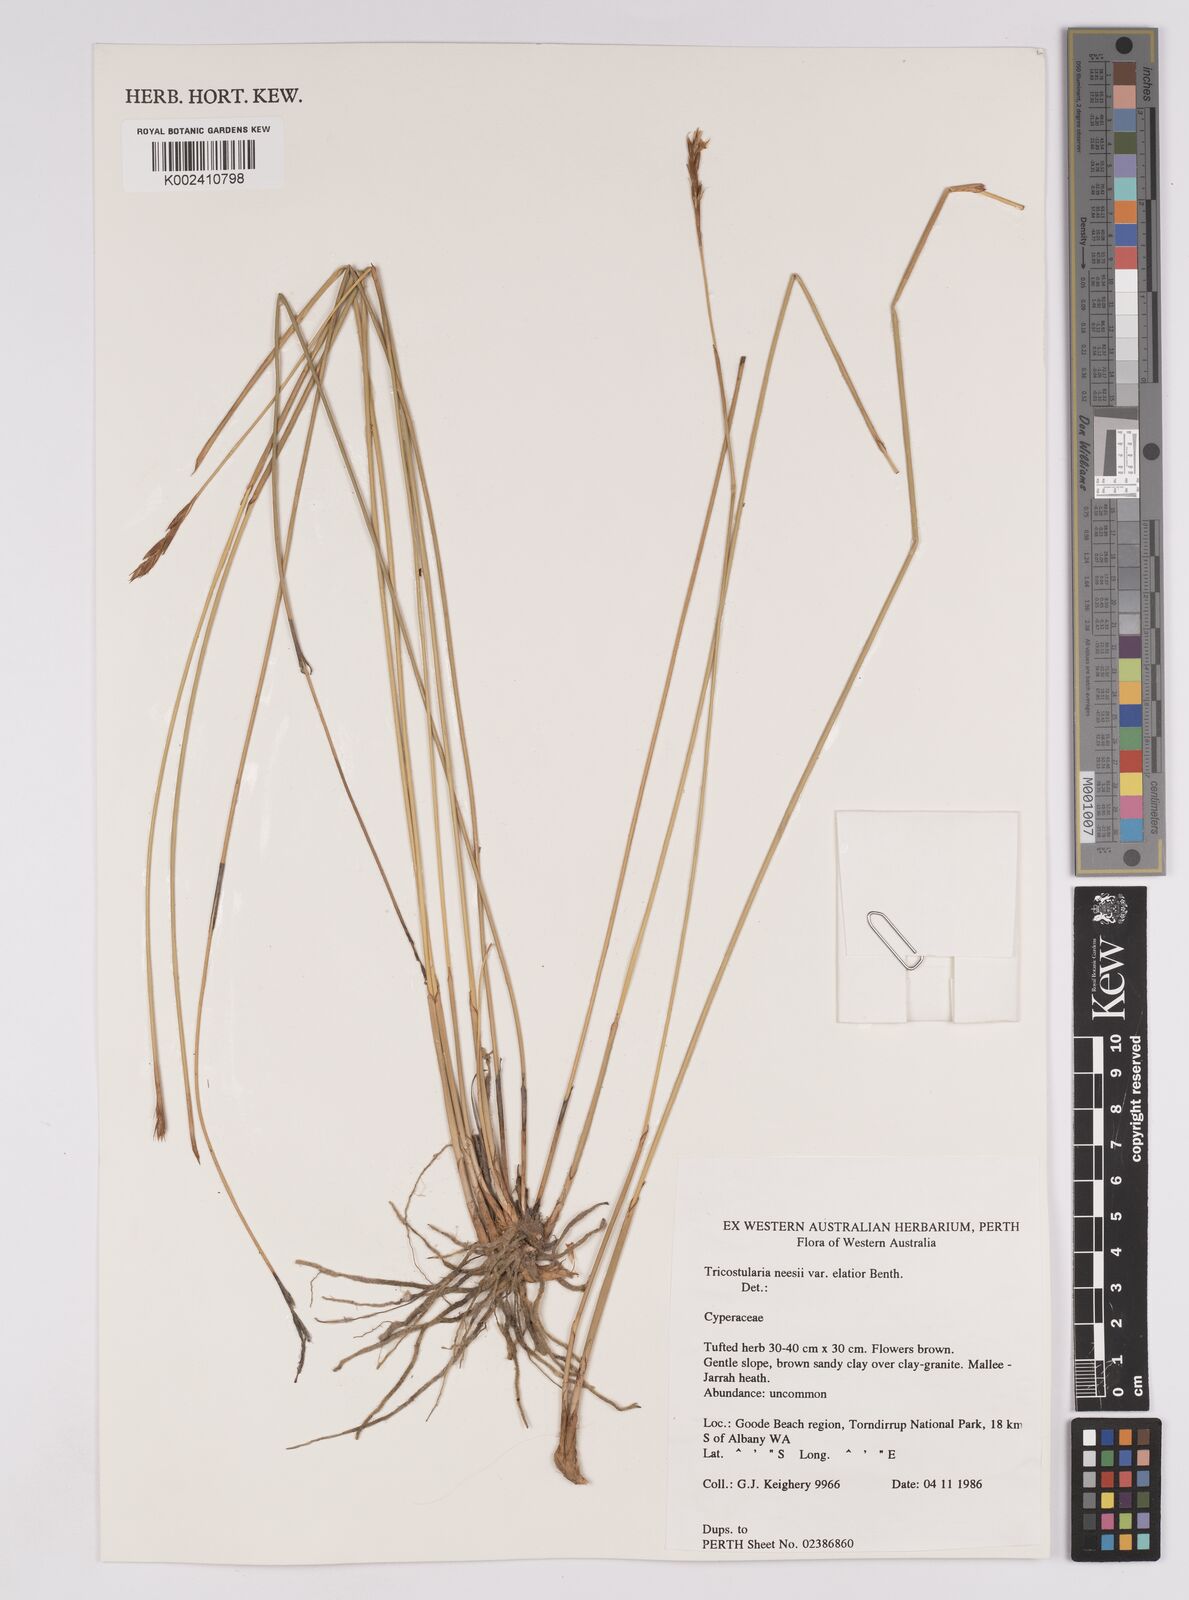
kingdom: Plantae
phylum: Tracheophyta
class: Liliopsida
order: Poales
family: Cyperaceae
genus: Tricostularia
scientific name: Tricostularia neesii
